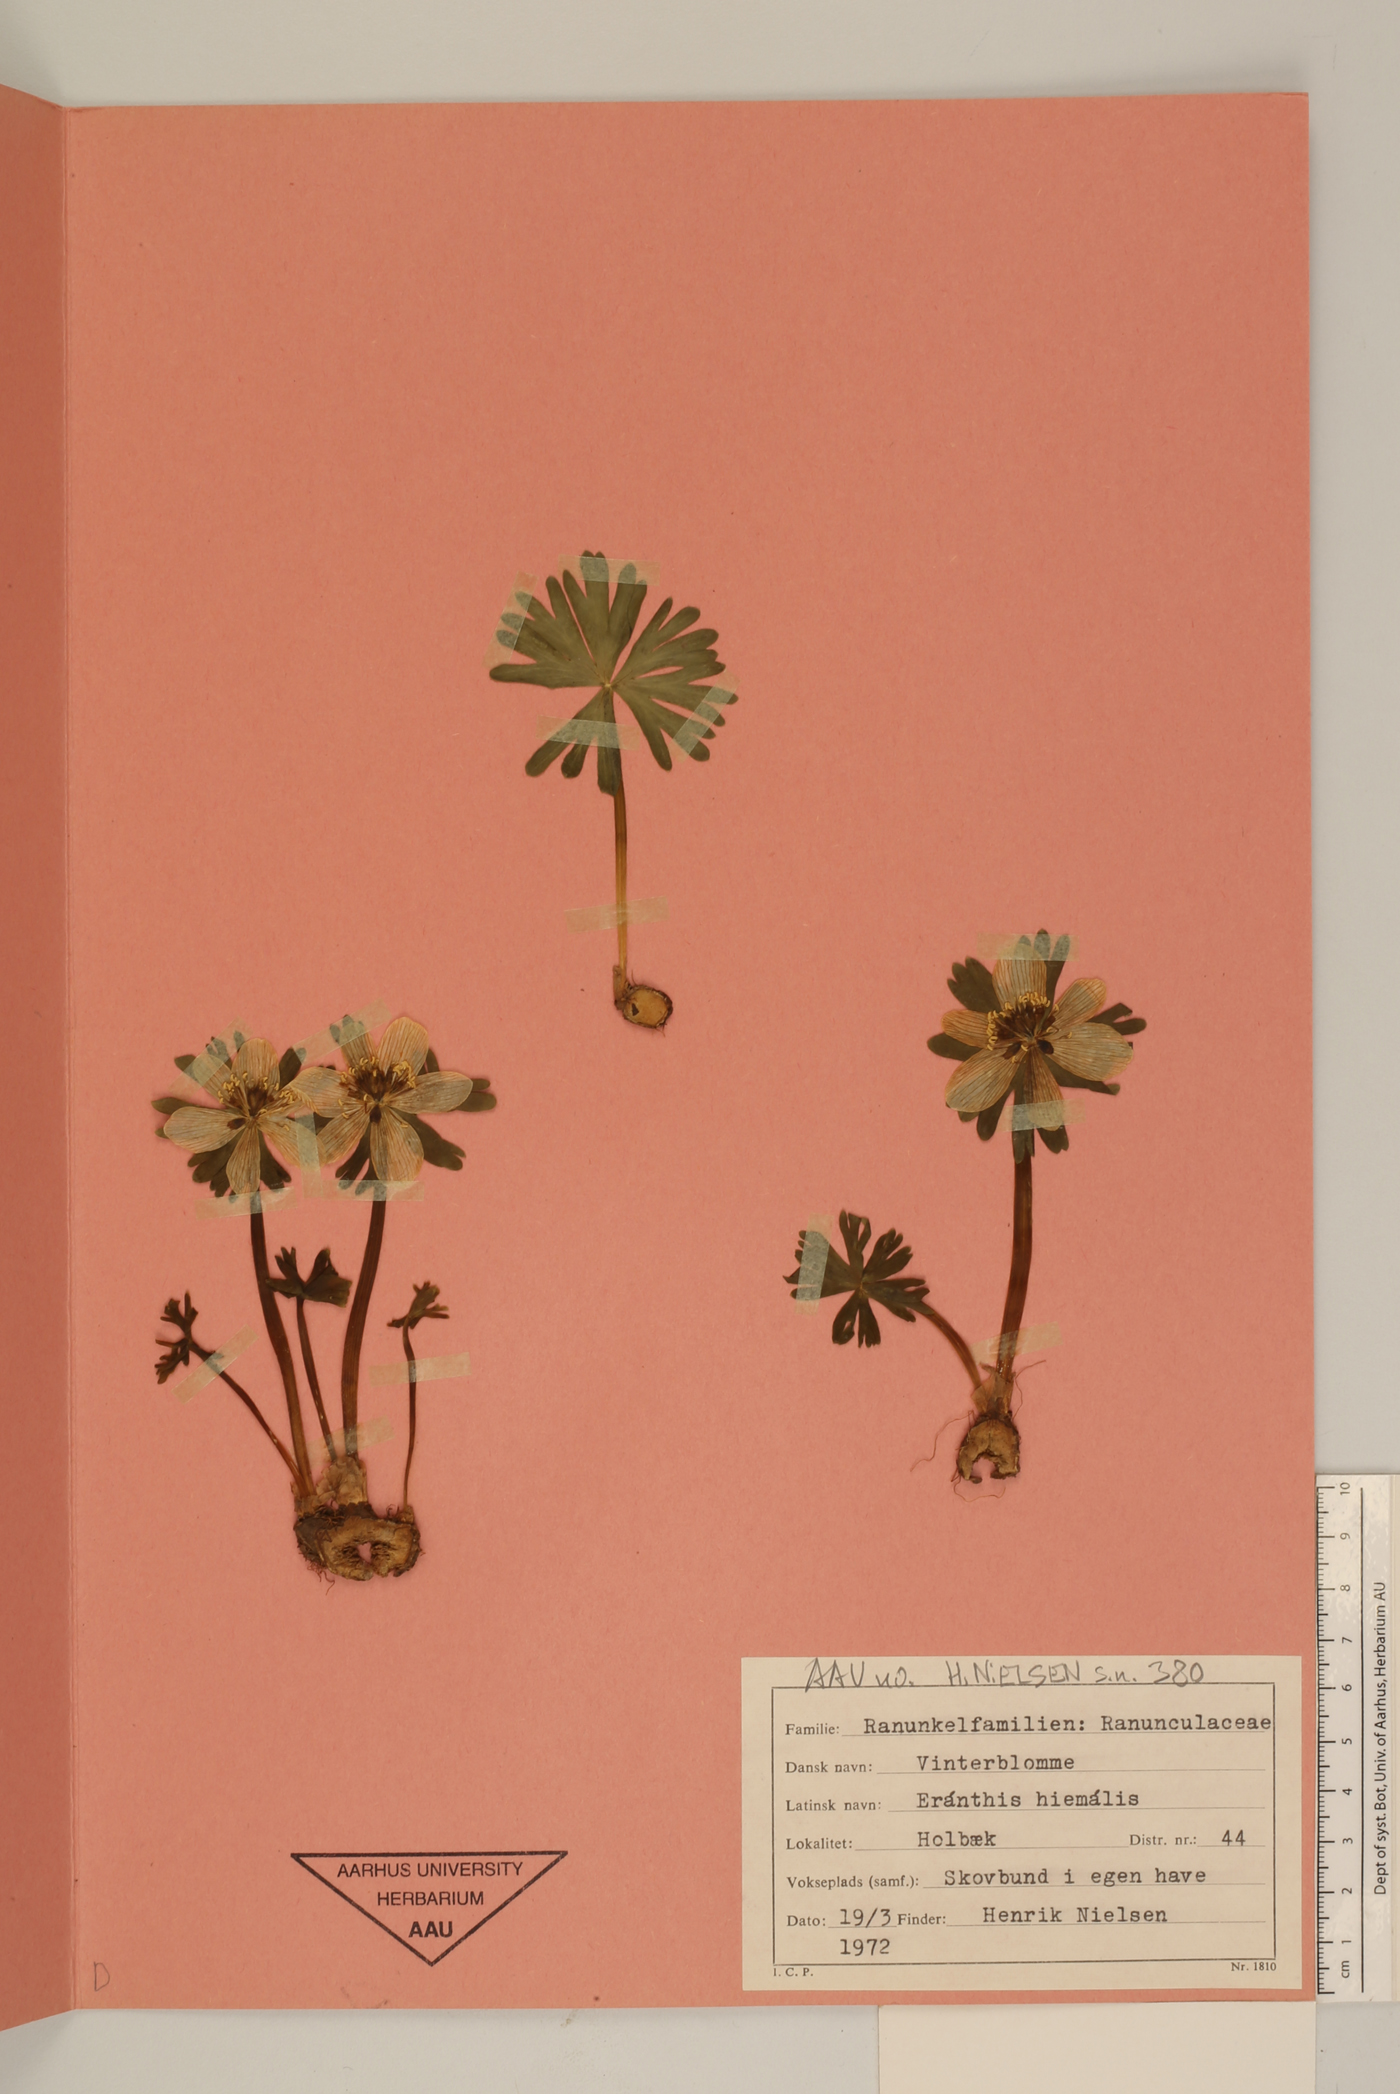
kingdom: Plantae
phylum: Tracheophyta
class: Magnoliopsida
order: Ranunculales
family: Ranunculaceae
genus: Eranthis
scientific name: Eranthis hyemalis
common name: Winter aconite
